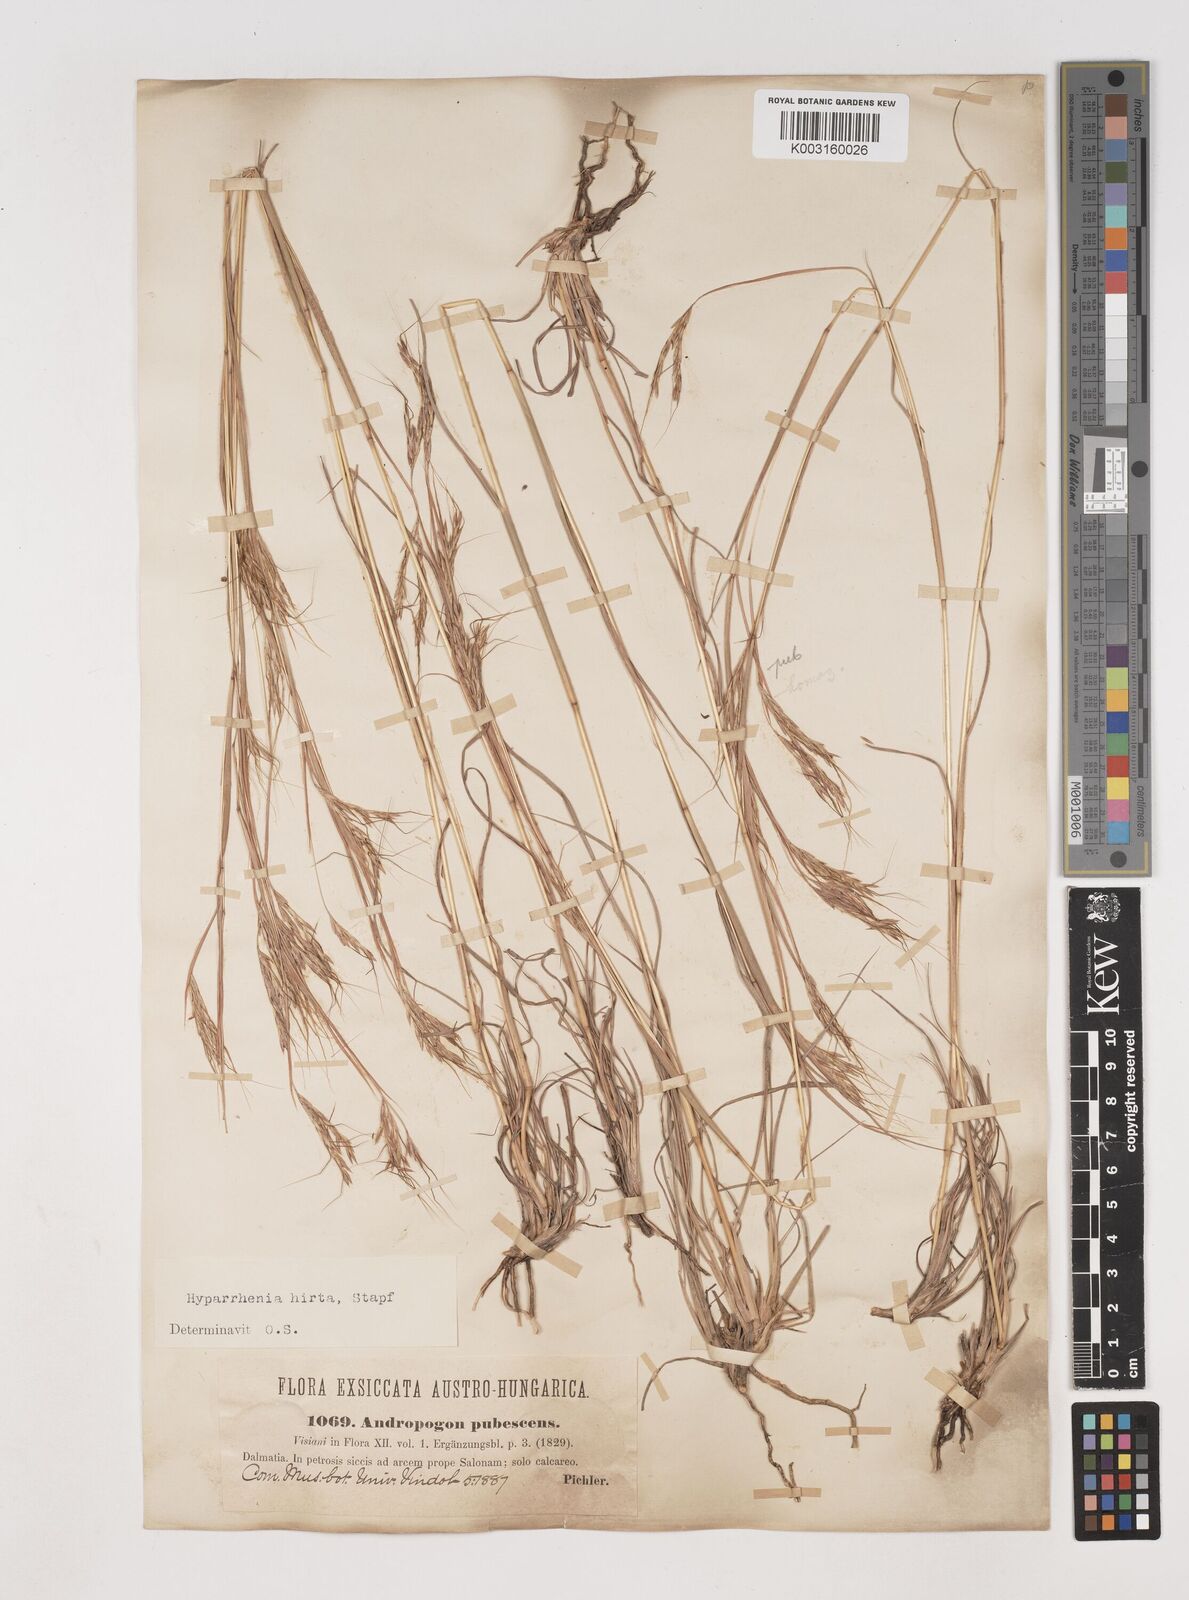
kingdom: Plantae
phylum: Tracheophyta
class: Liliopsida
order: Poales
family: Poaceae
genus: Hyparrhenia
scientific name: Hyparrhenia hirta
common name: Thatching grass
